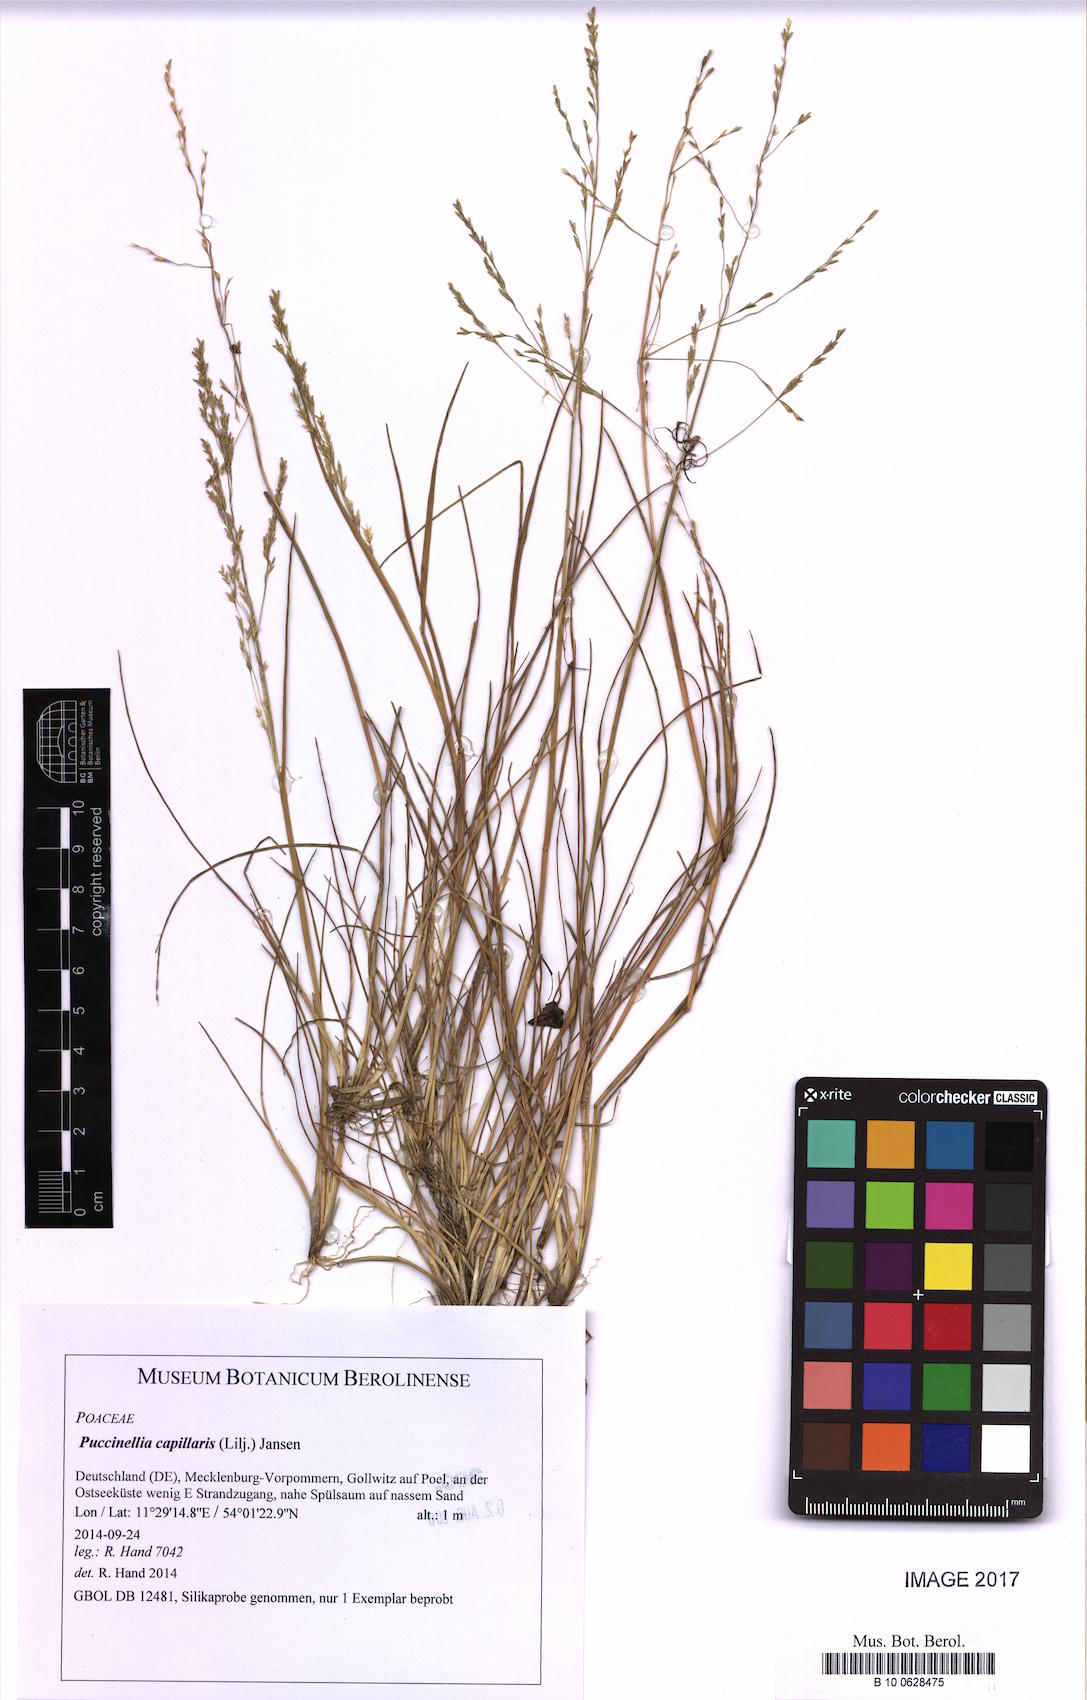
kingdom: Plantae
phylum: Tracheophyta
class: Liliopsida
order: Poales
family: Poaceae
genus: Puccinellia
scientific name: Puccinellia distans
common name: Weeping alkaligrass
